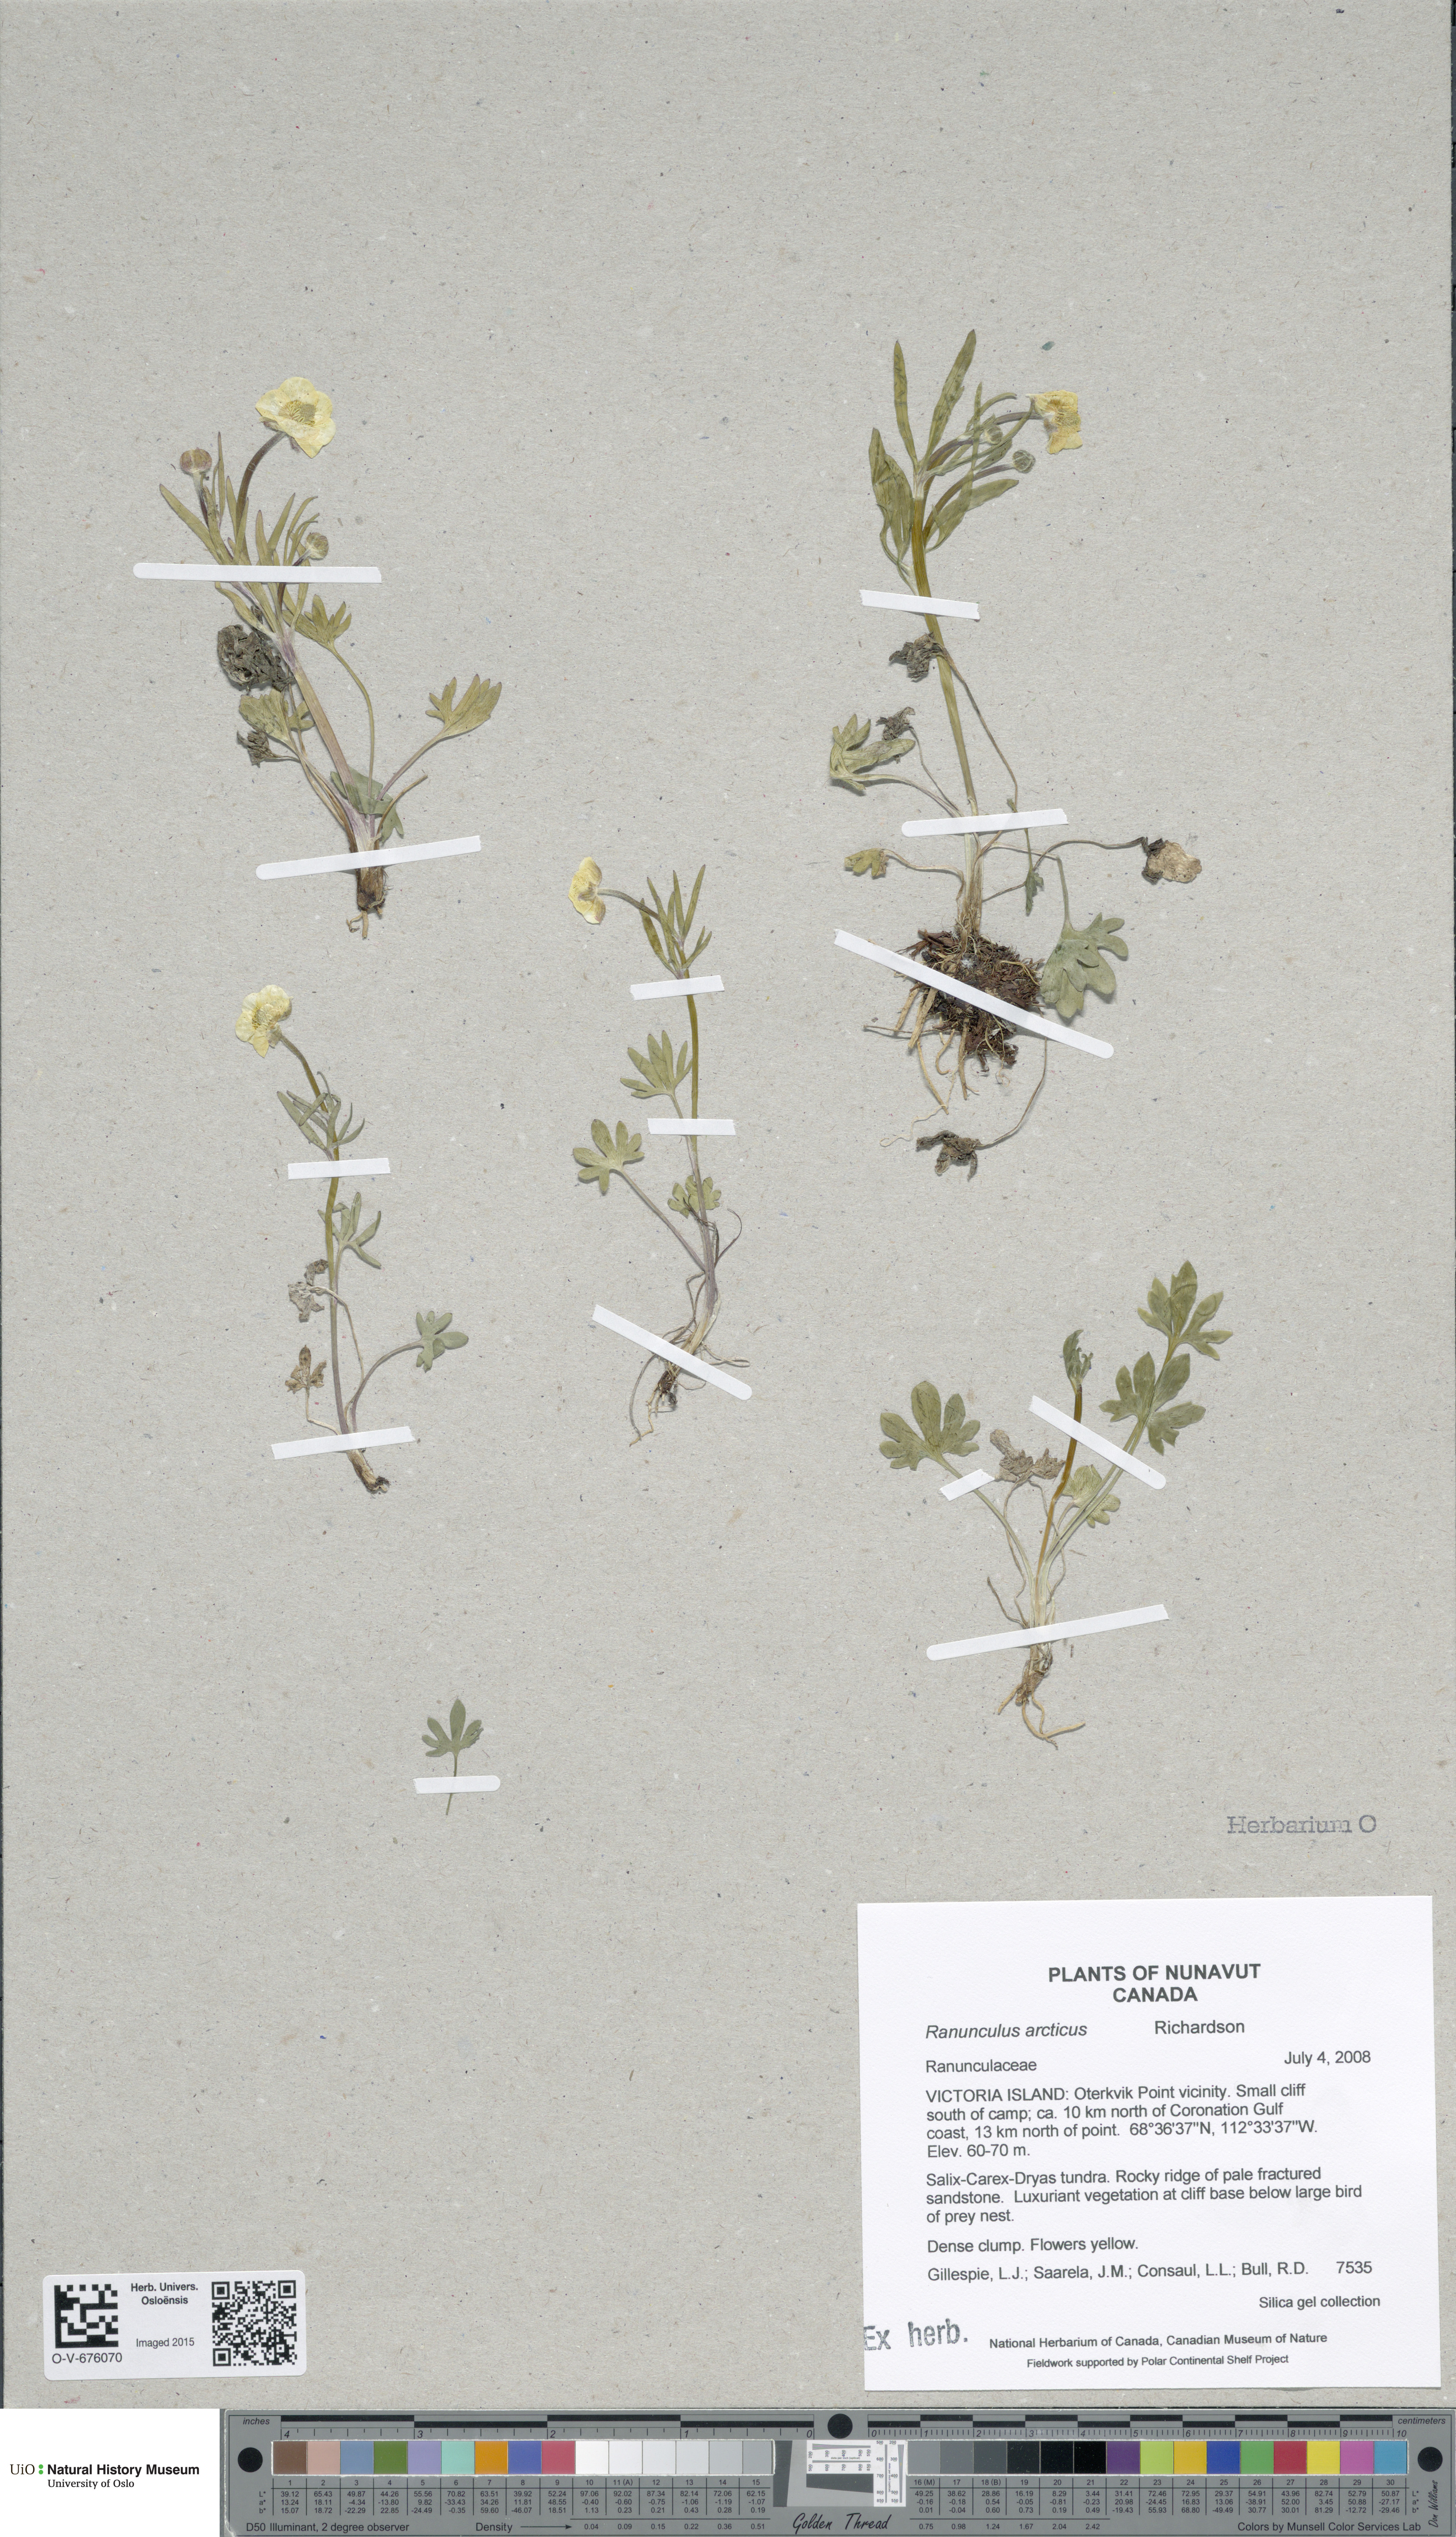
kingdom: Plantae
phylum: Tracheophyta
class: Magnoliopsida
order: Ranunculales
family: Ranunculaceae
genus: Ranunculus
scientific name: Ranunculus arcticus
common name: Bird's-foot buttercup
